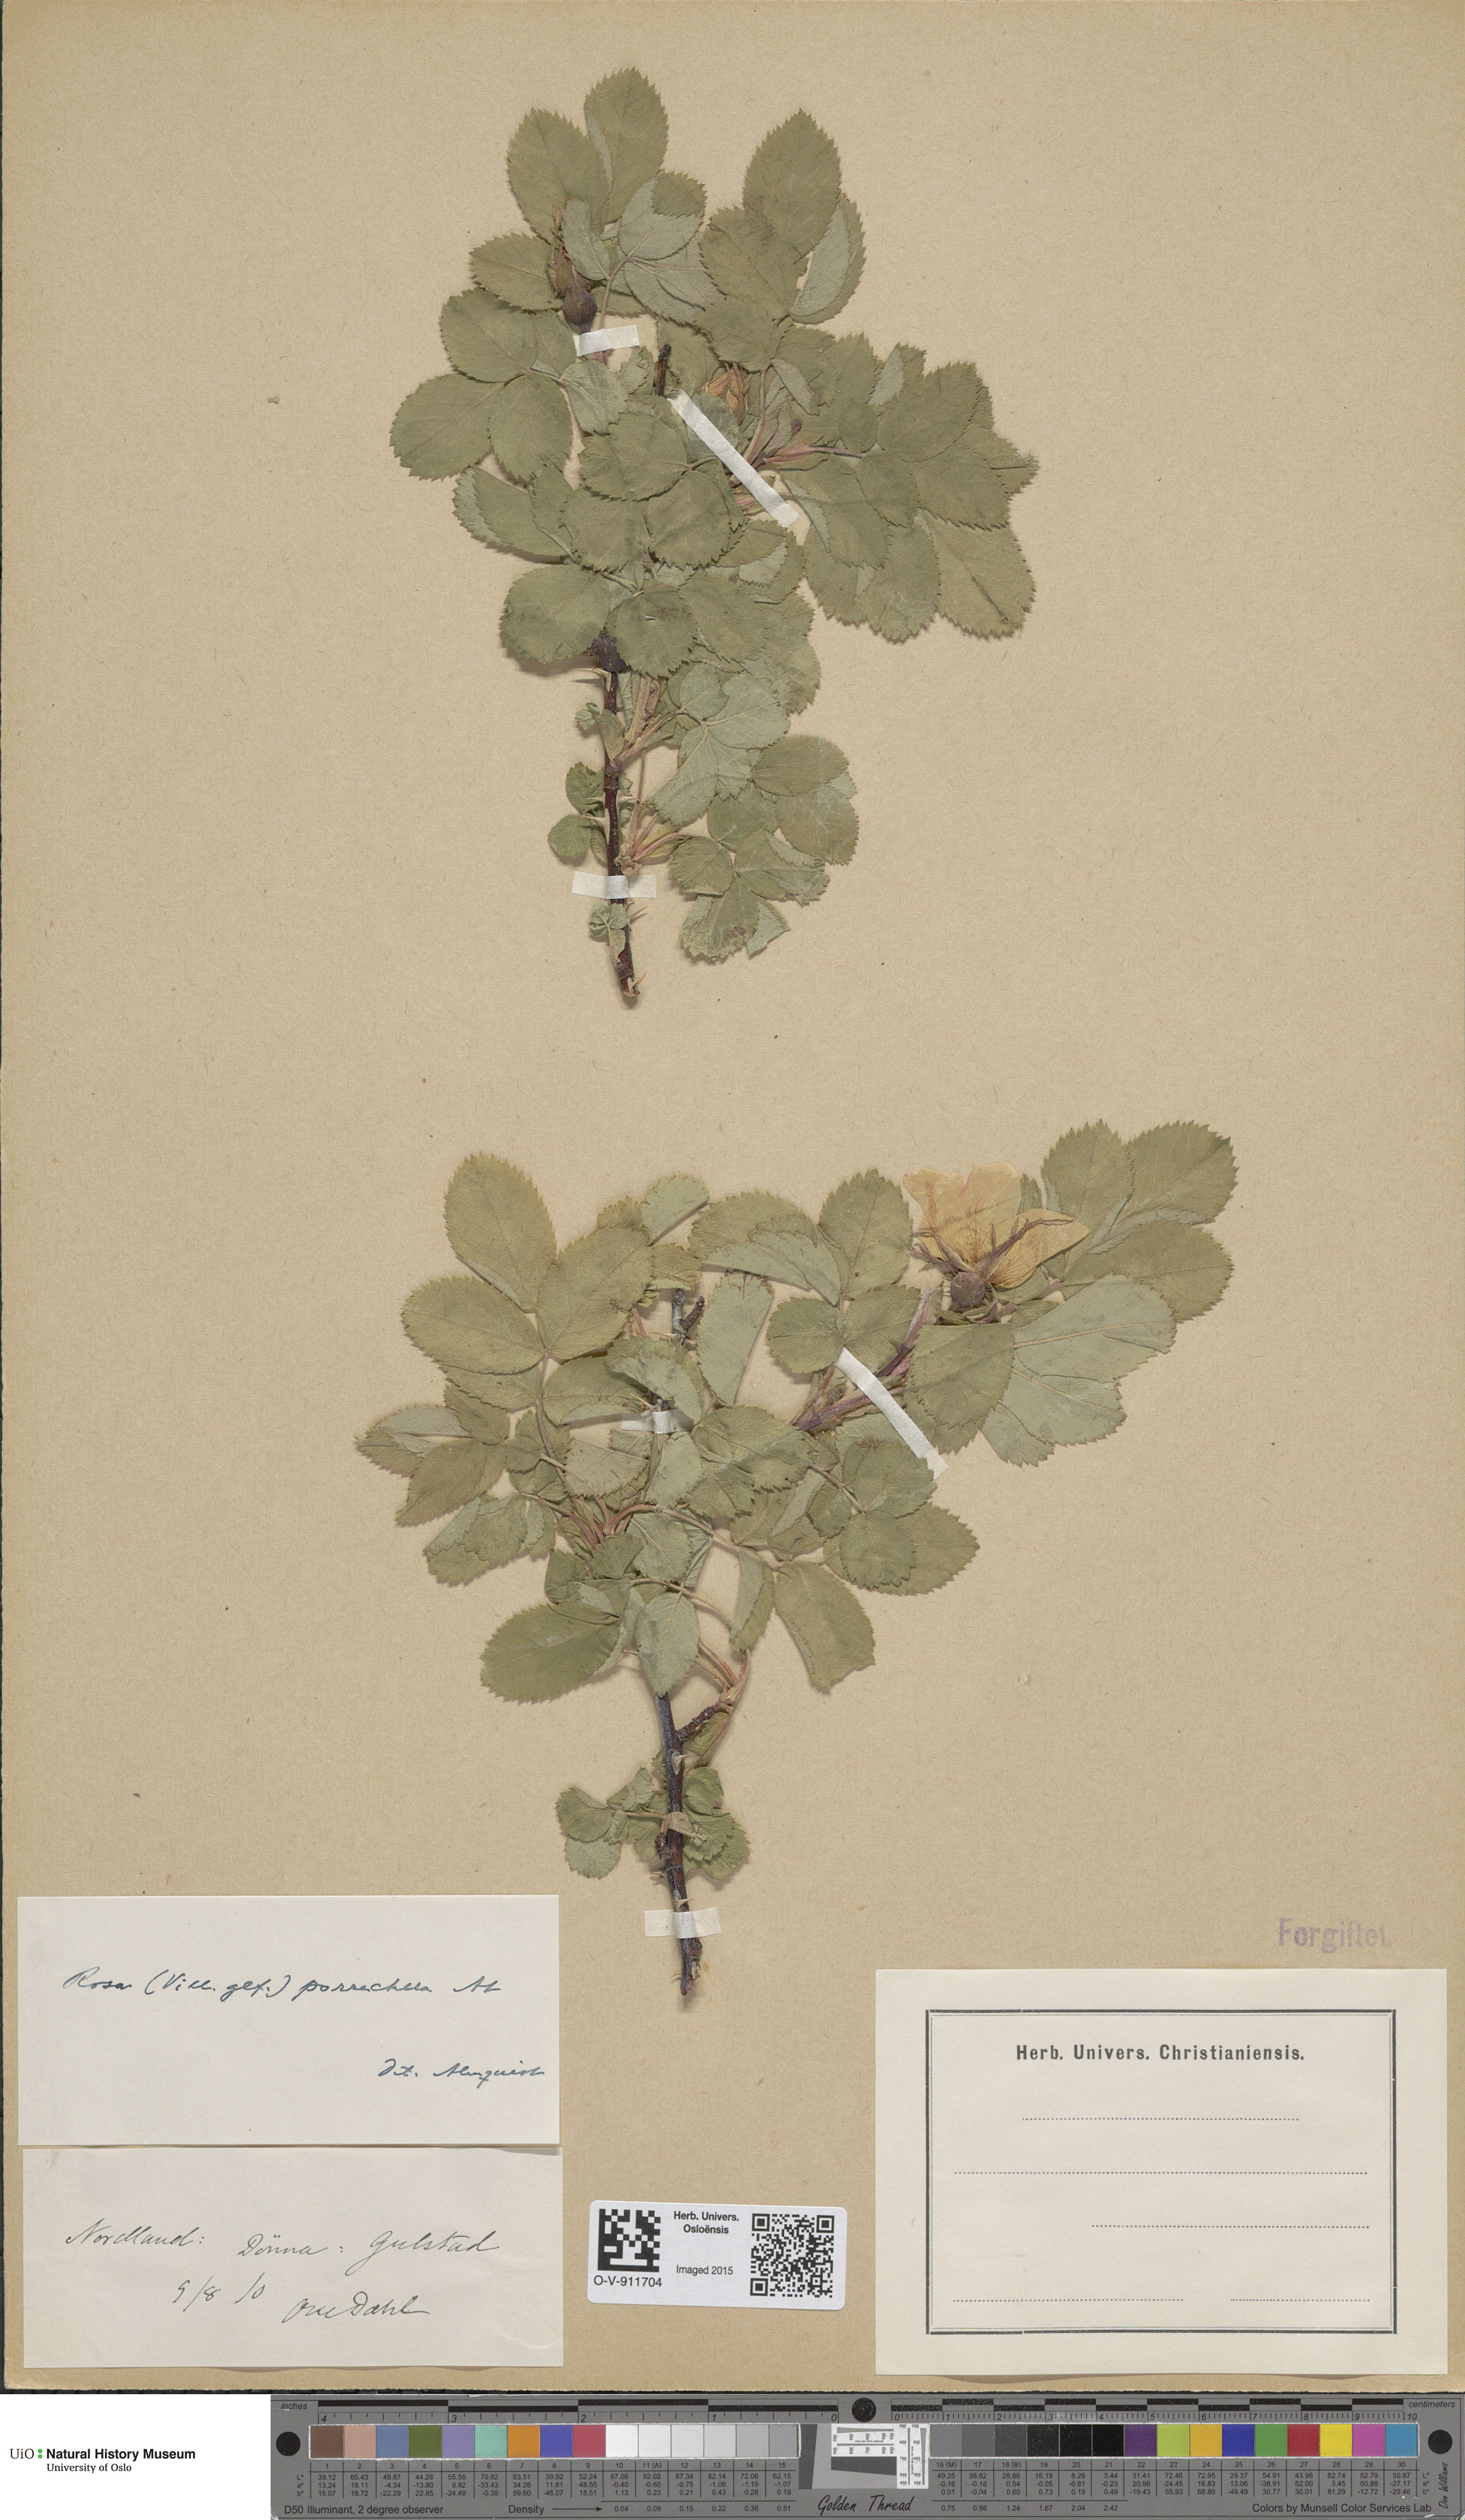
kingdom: Plantae
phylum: Tracheophyta
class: Magnoliopsida
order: Rosales
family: Rosaceae
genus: Rosa
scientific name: Rosa mollis
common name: Rose
